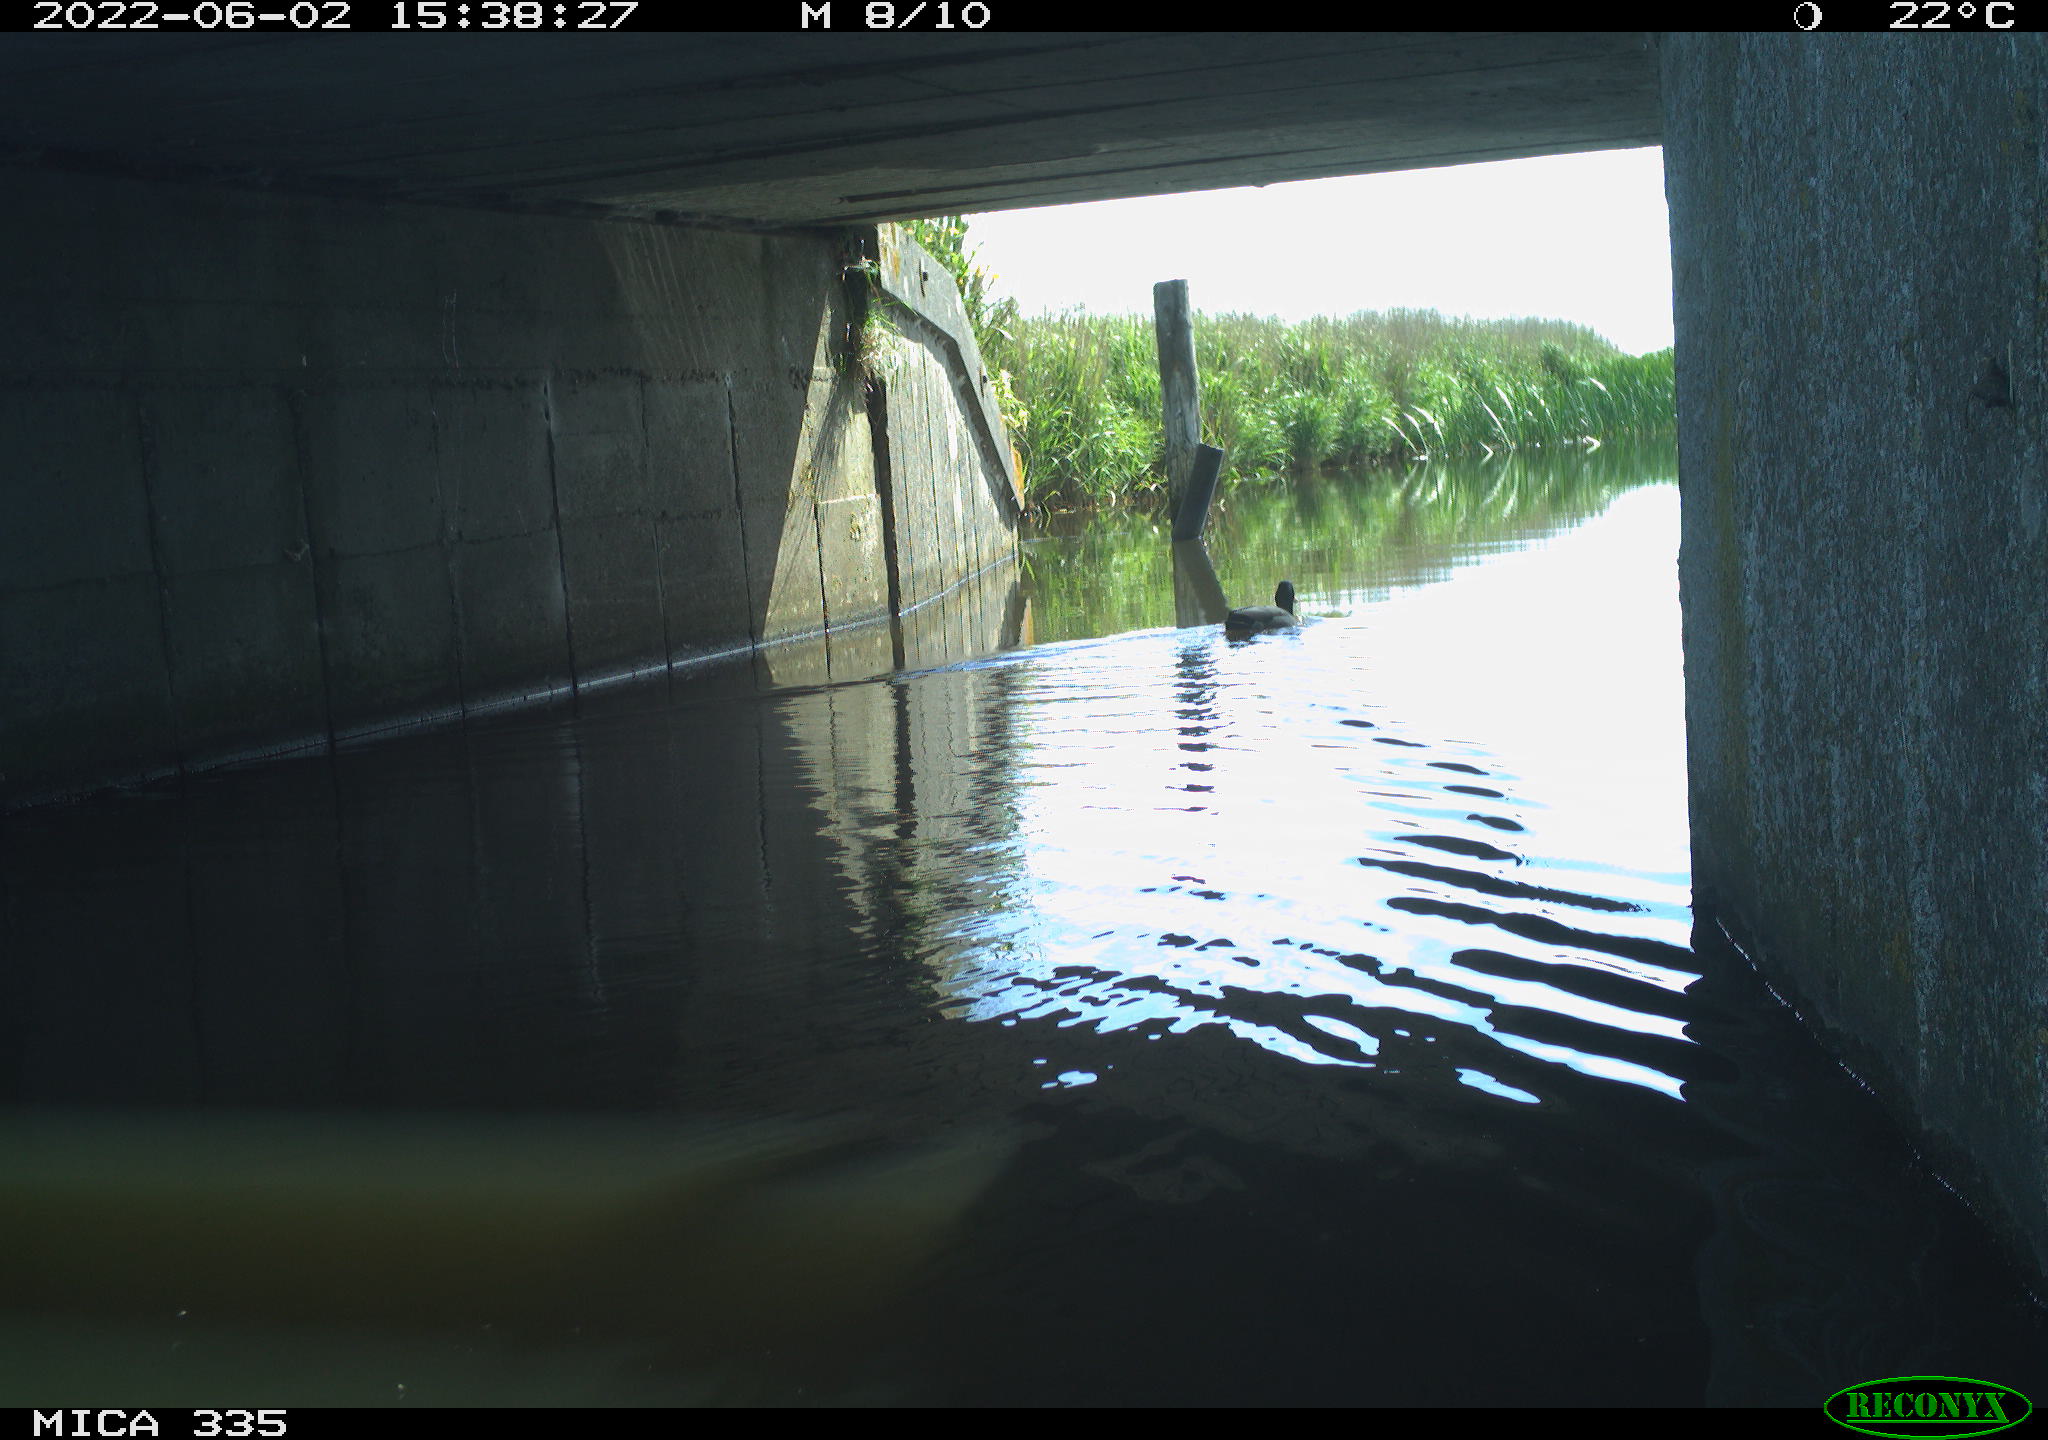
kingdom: Animalia
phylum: Chordata
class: Aves
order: Anseriformes
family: Anatidae
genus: Anas
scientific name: Anas platyrhynchos
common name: Mallard
